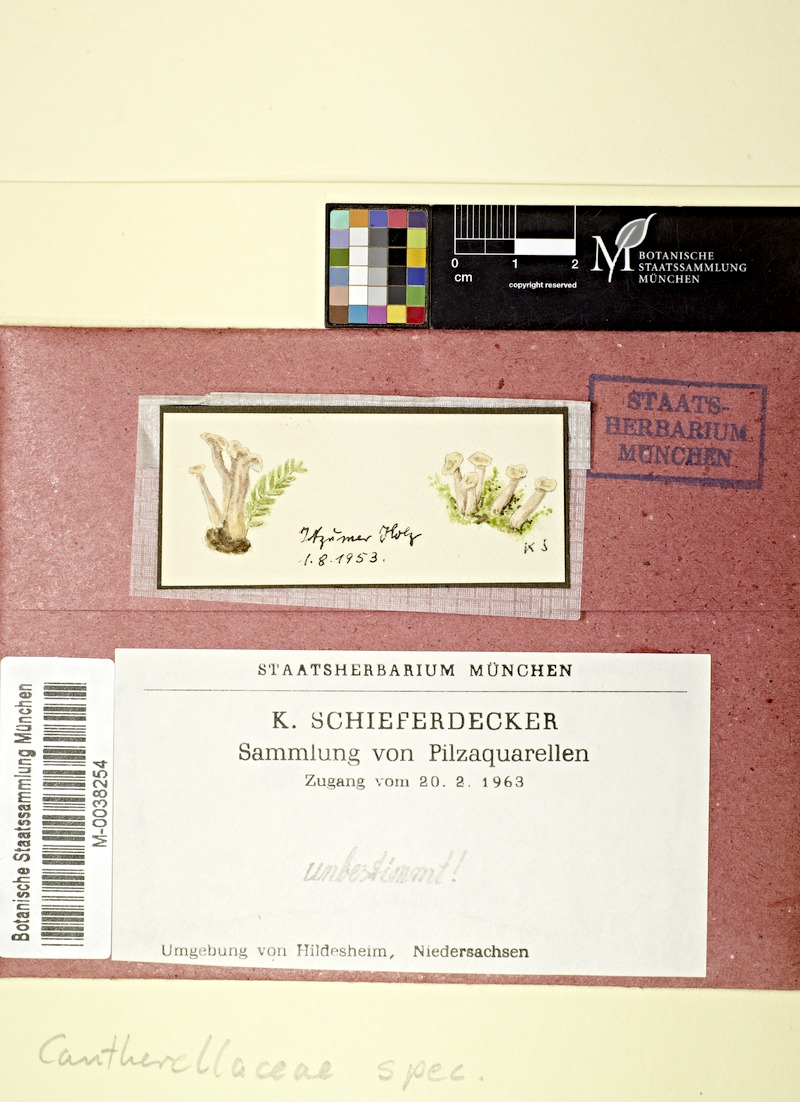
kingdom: Fungi
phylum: Basidiomycota
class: Agaricomycetes
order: Cantharellales
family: Cantharellaceae
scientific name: Cantharellaceae
